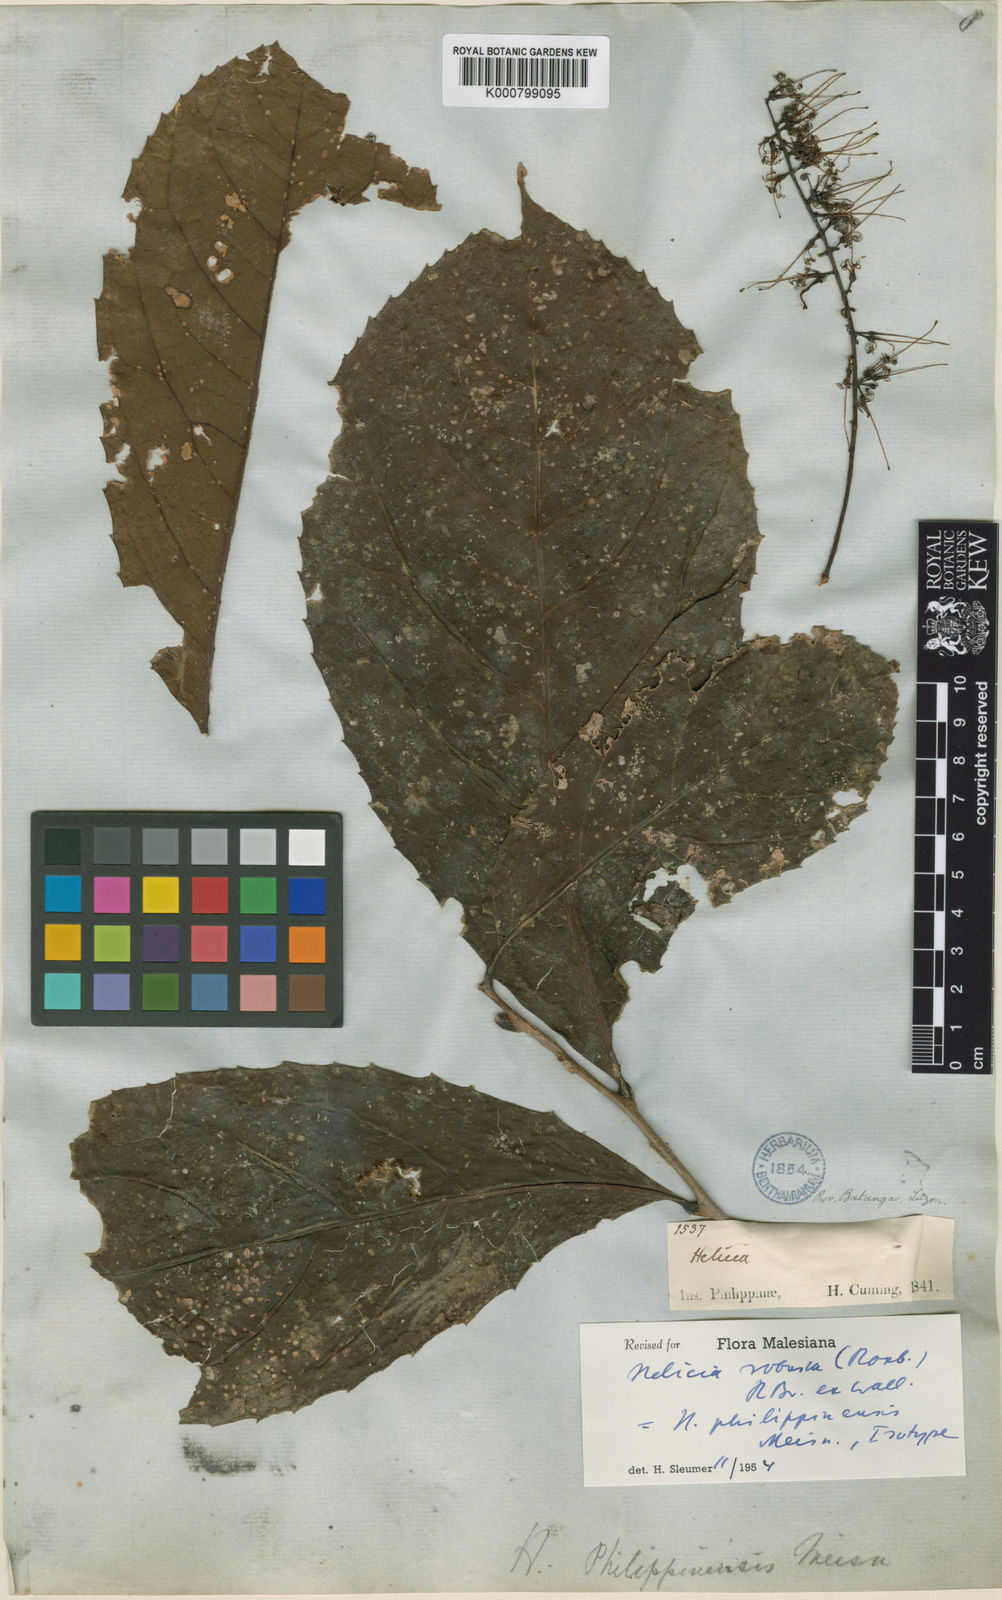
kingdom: Plantae
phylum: Tracheophyta
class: Magnoliopsida
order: Proteales
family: Proteaceae
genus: Helicia
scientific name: Helicia
